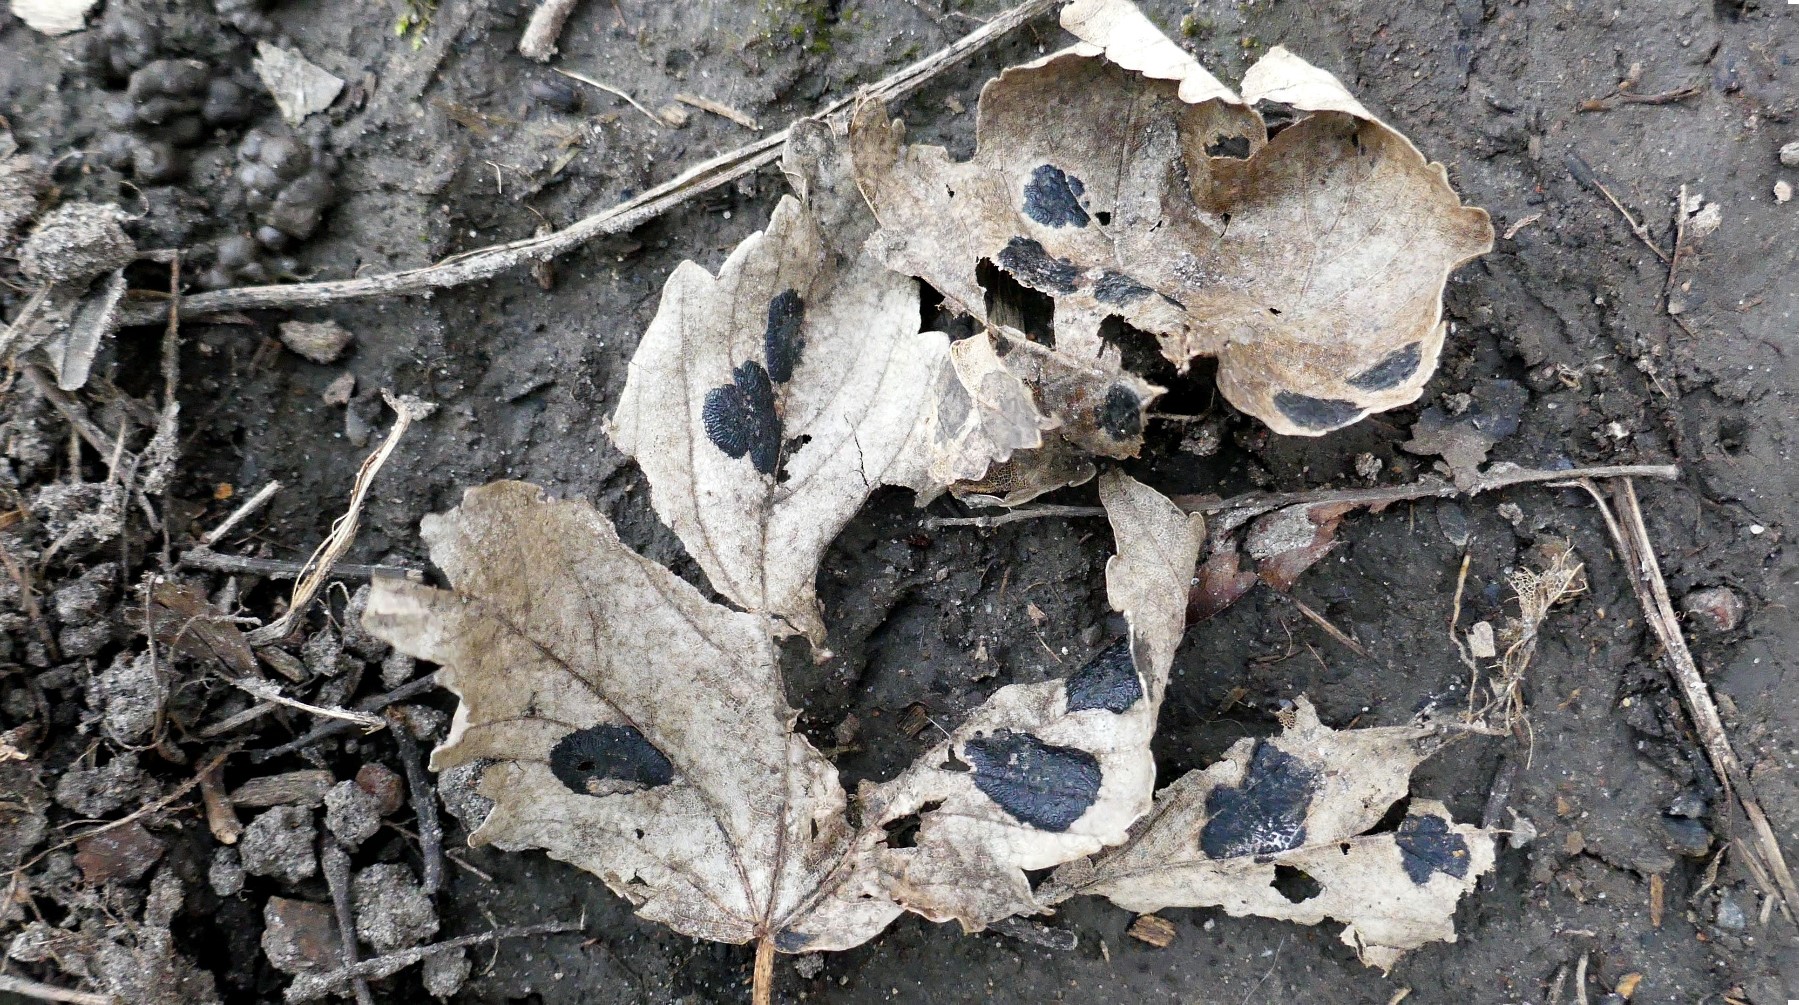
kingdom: Fungi
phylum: Ascomycota
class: Leotiomycetes
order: Rhytismatales
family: Rhytismataceae
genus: Rhytisma
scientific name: Rhytisma acerinum
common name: ahorn-rynkeplet
